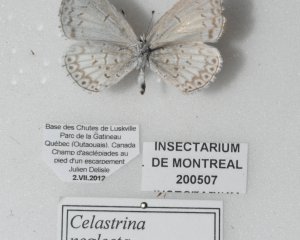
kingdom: Animalia
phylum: Arthropoda
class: Insecta
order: Lepidoptera
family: Lycaenidae
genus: Cyaniris
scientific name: Cyaniris neglecta
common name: Summer Azure
